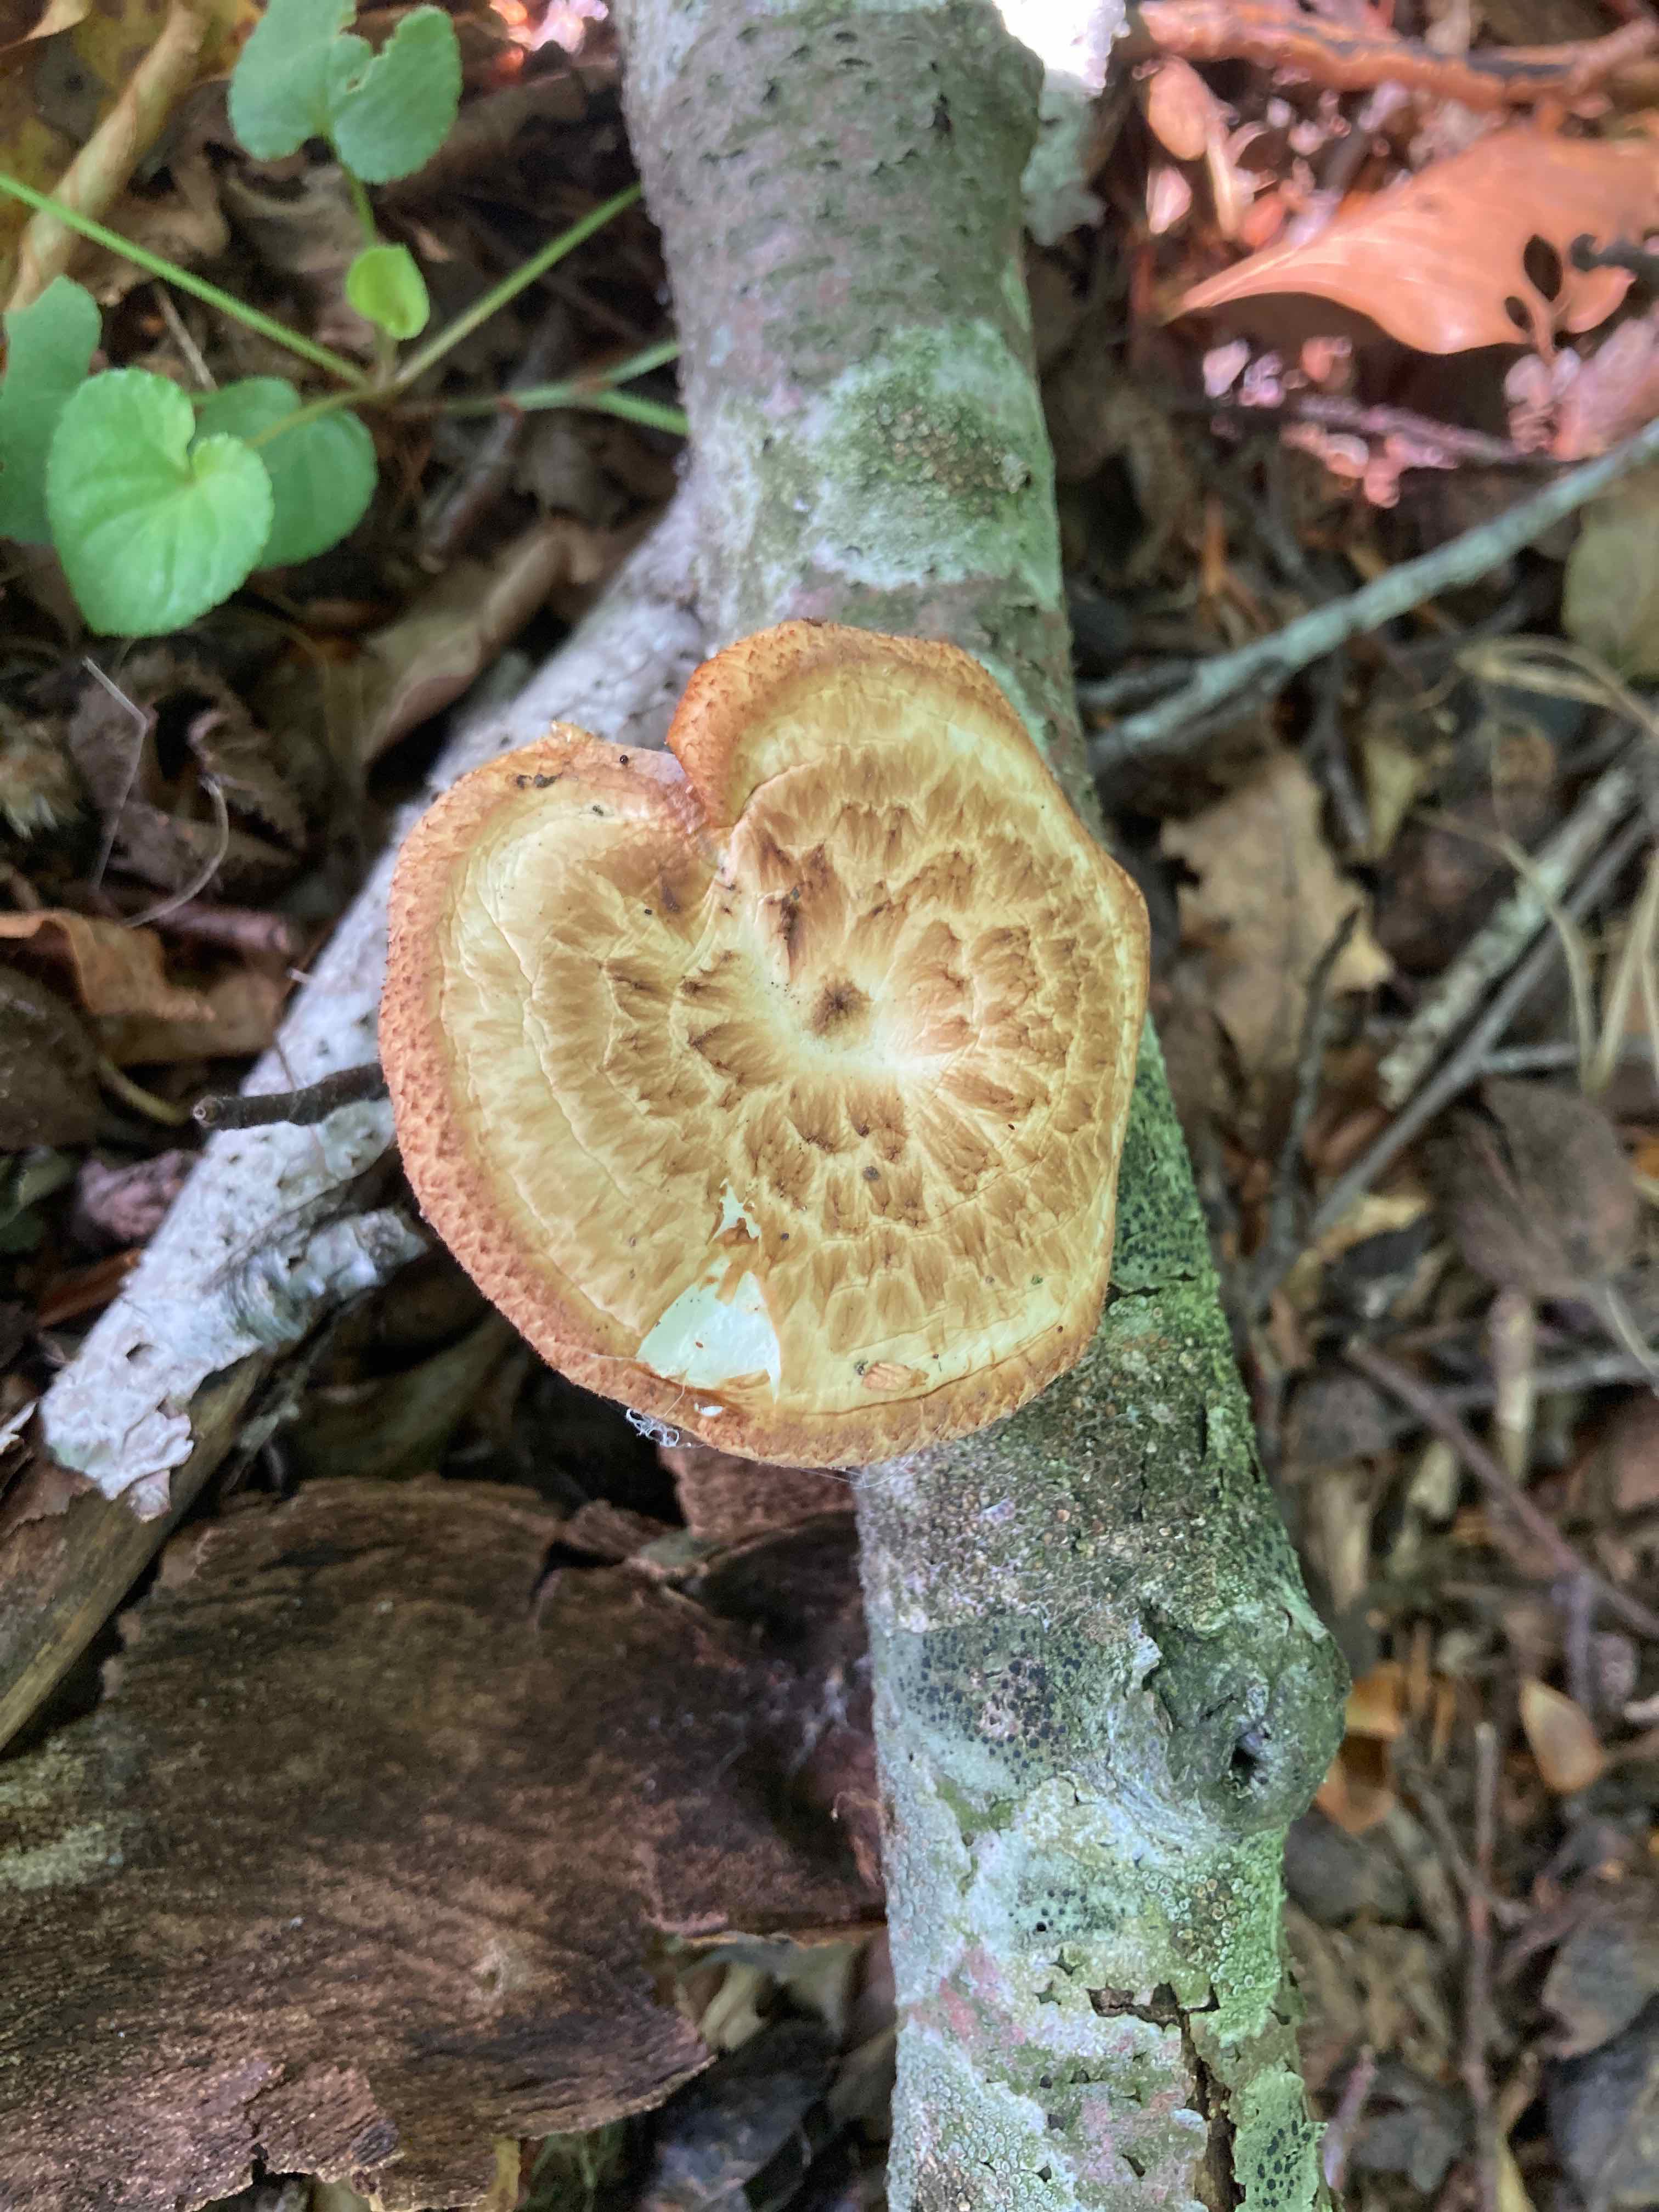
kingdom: Fungi
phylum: Basidiomycota
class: Agaricomycetes
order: Polyporales
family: Polyporaceae
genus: Polyporus
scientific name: Polyporus tuberaster
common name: knoldet stilkporesvamp
